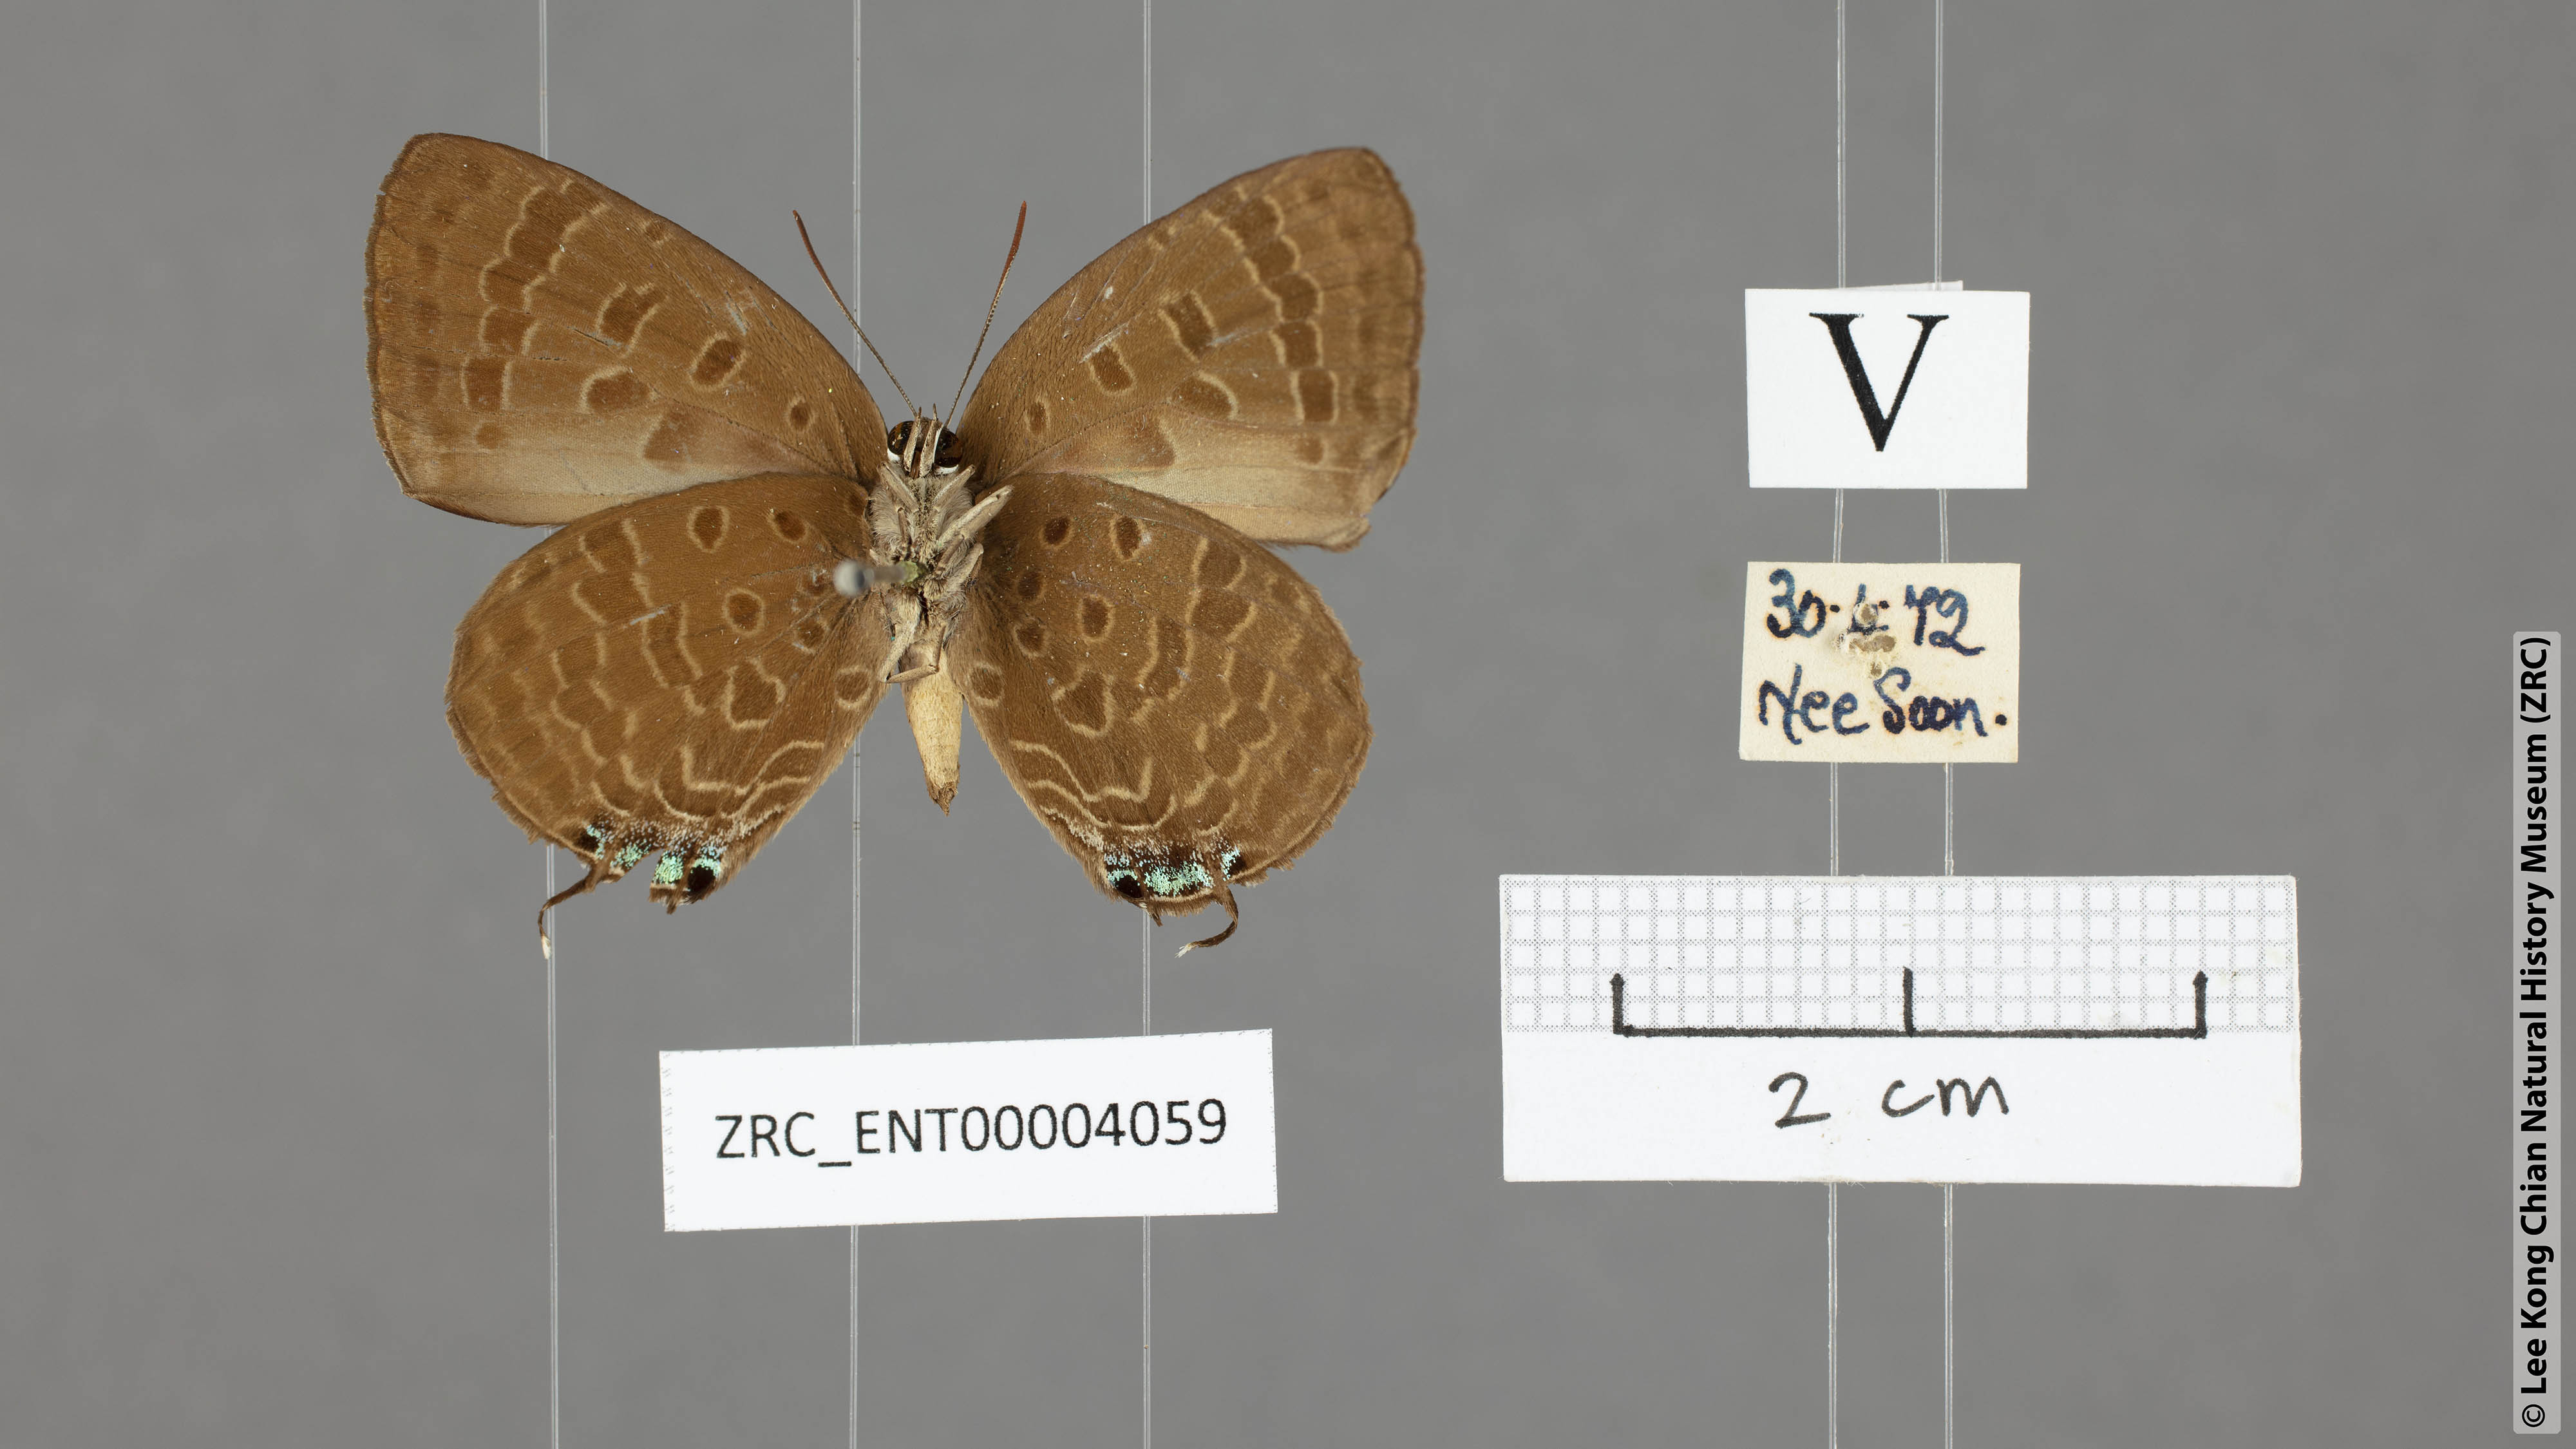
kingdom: Animalia
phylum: Arthropoda
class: Insecta
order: Lepidoptera
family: Lycaenidae
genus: Arhopala
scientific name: Arhopala sublustris
